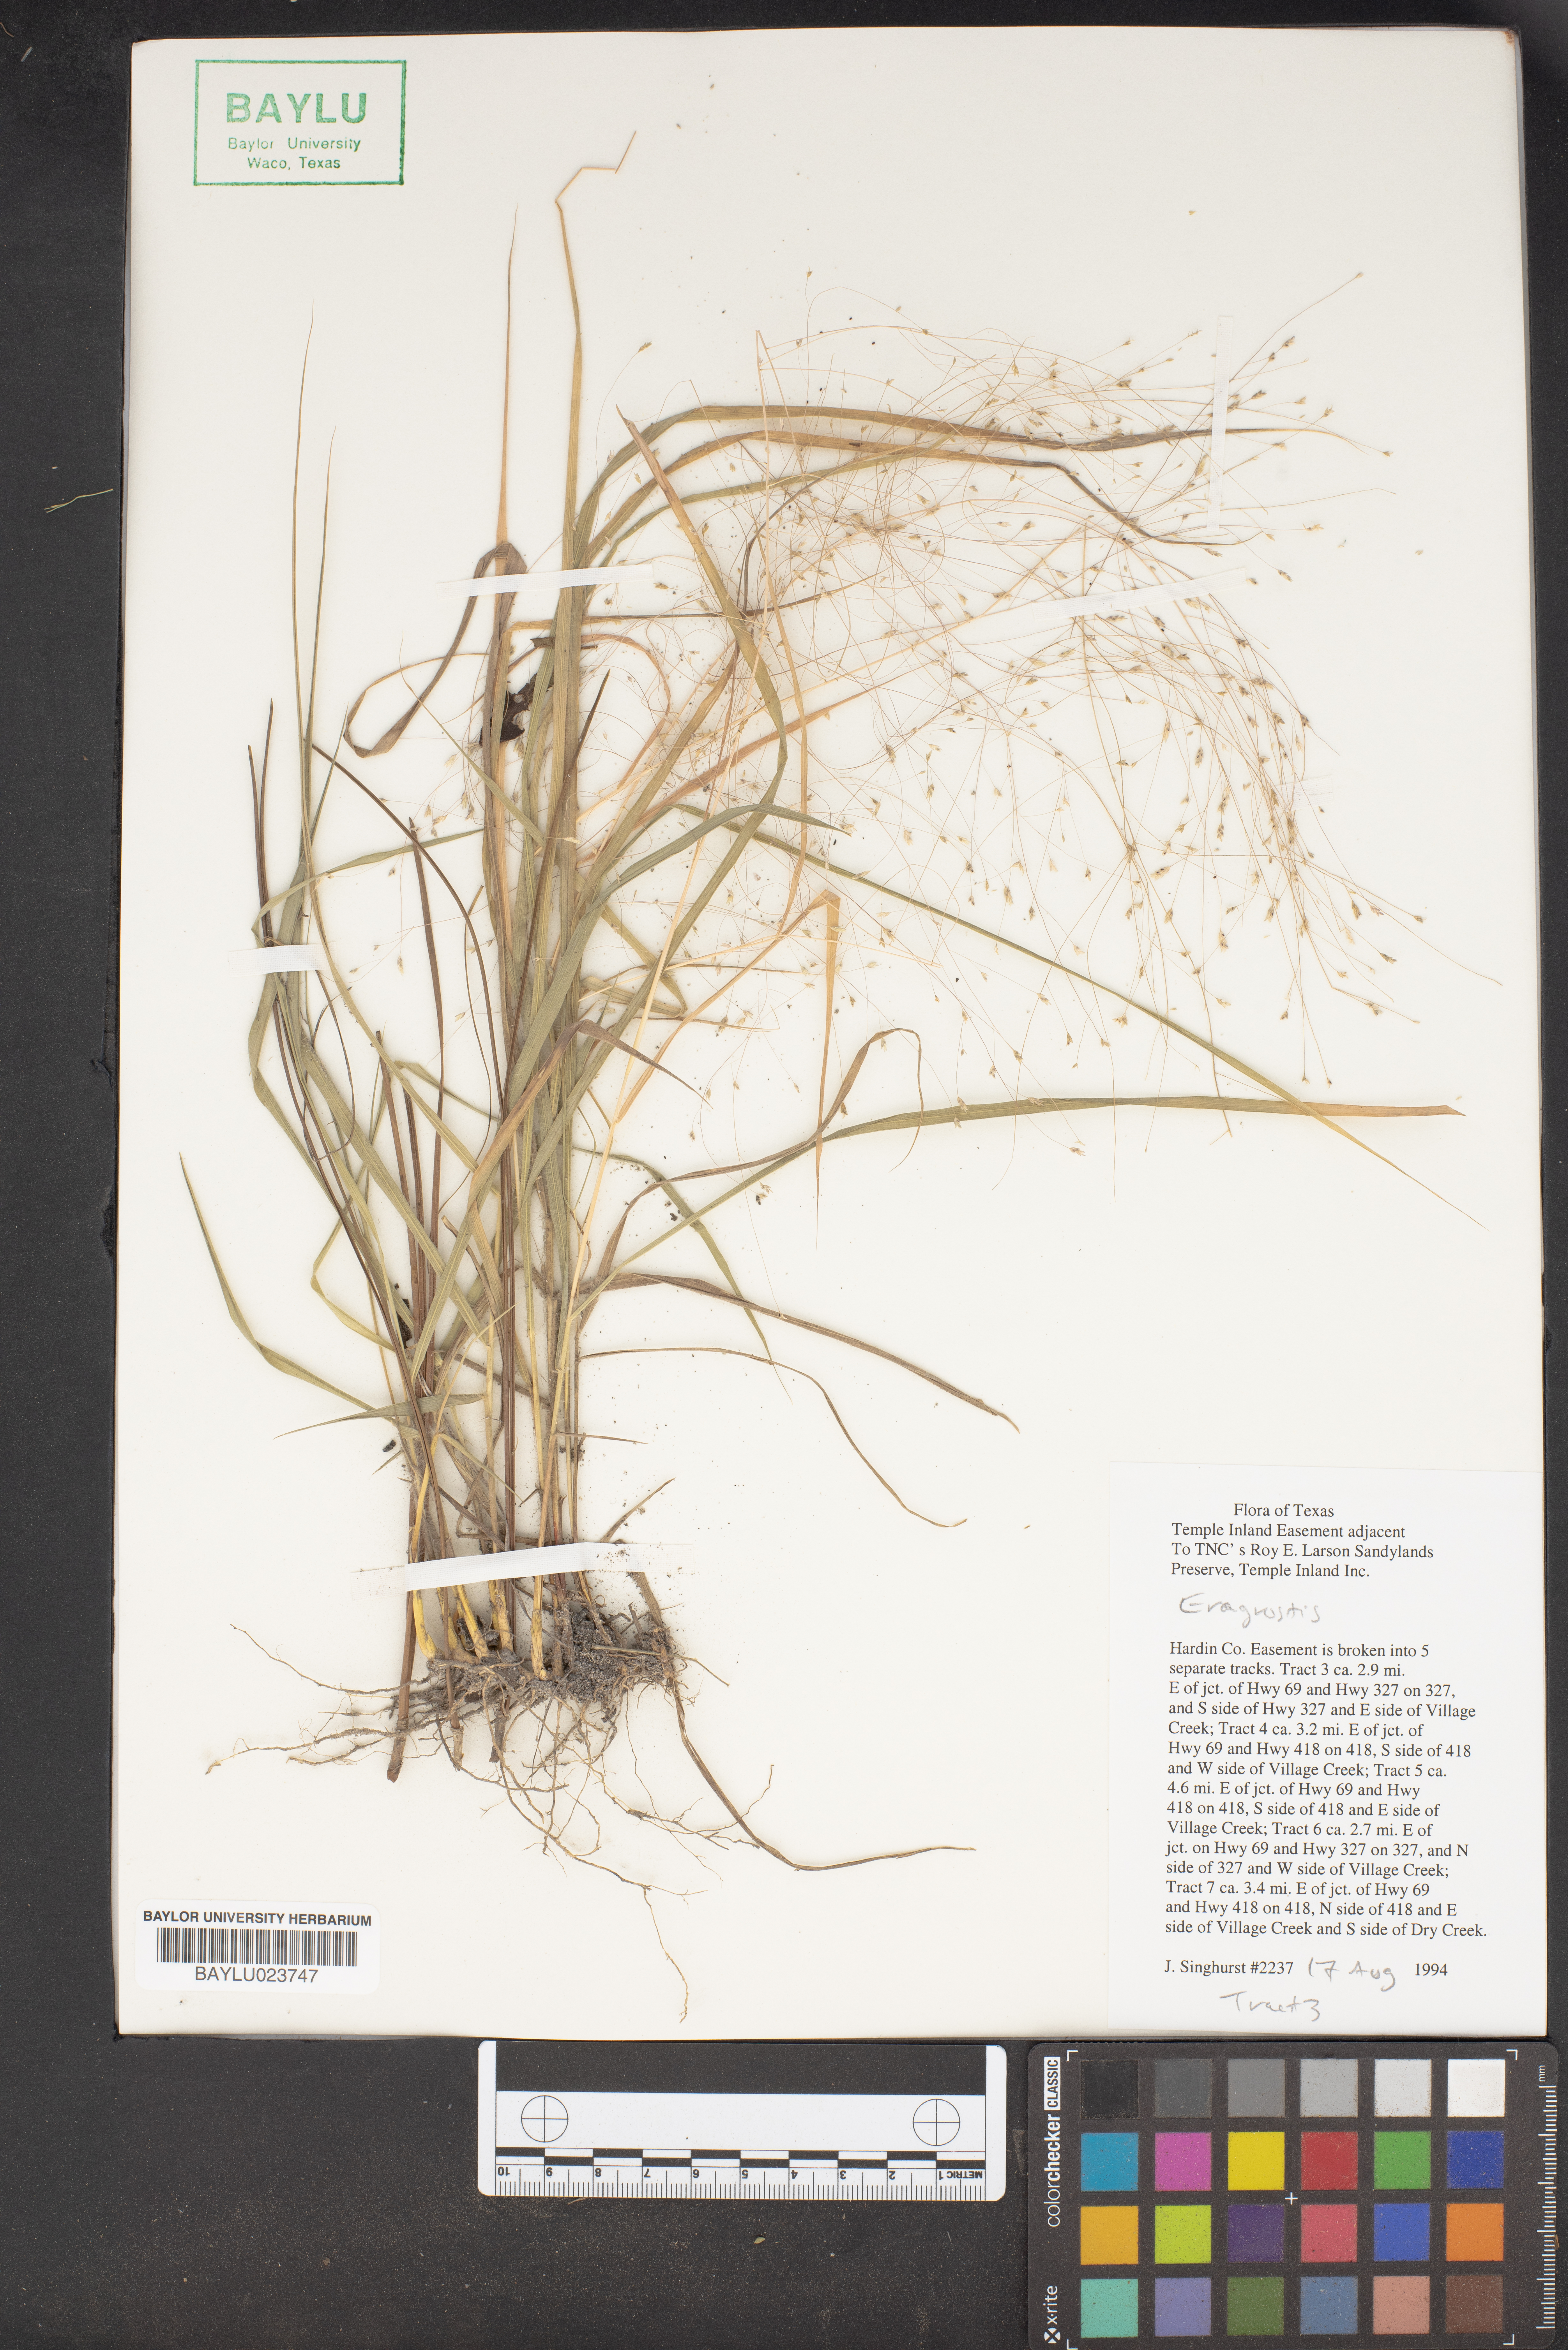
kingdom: Plantae
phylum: Tracheophyta
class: Liliopsida
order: Poales
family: Poaceae
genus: Eragrostis
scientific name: Eragrostis
